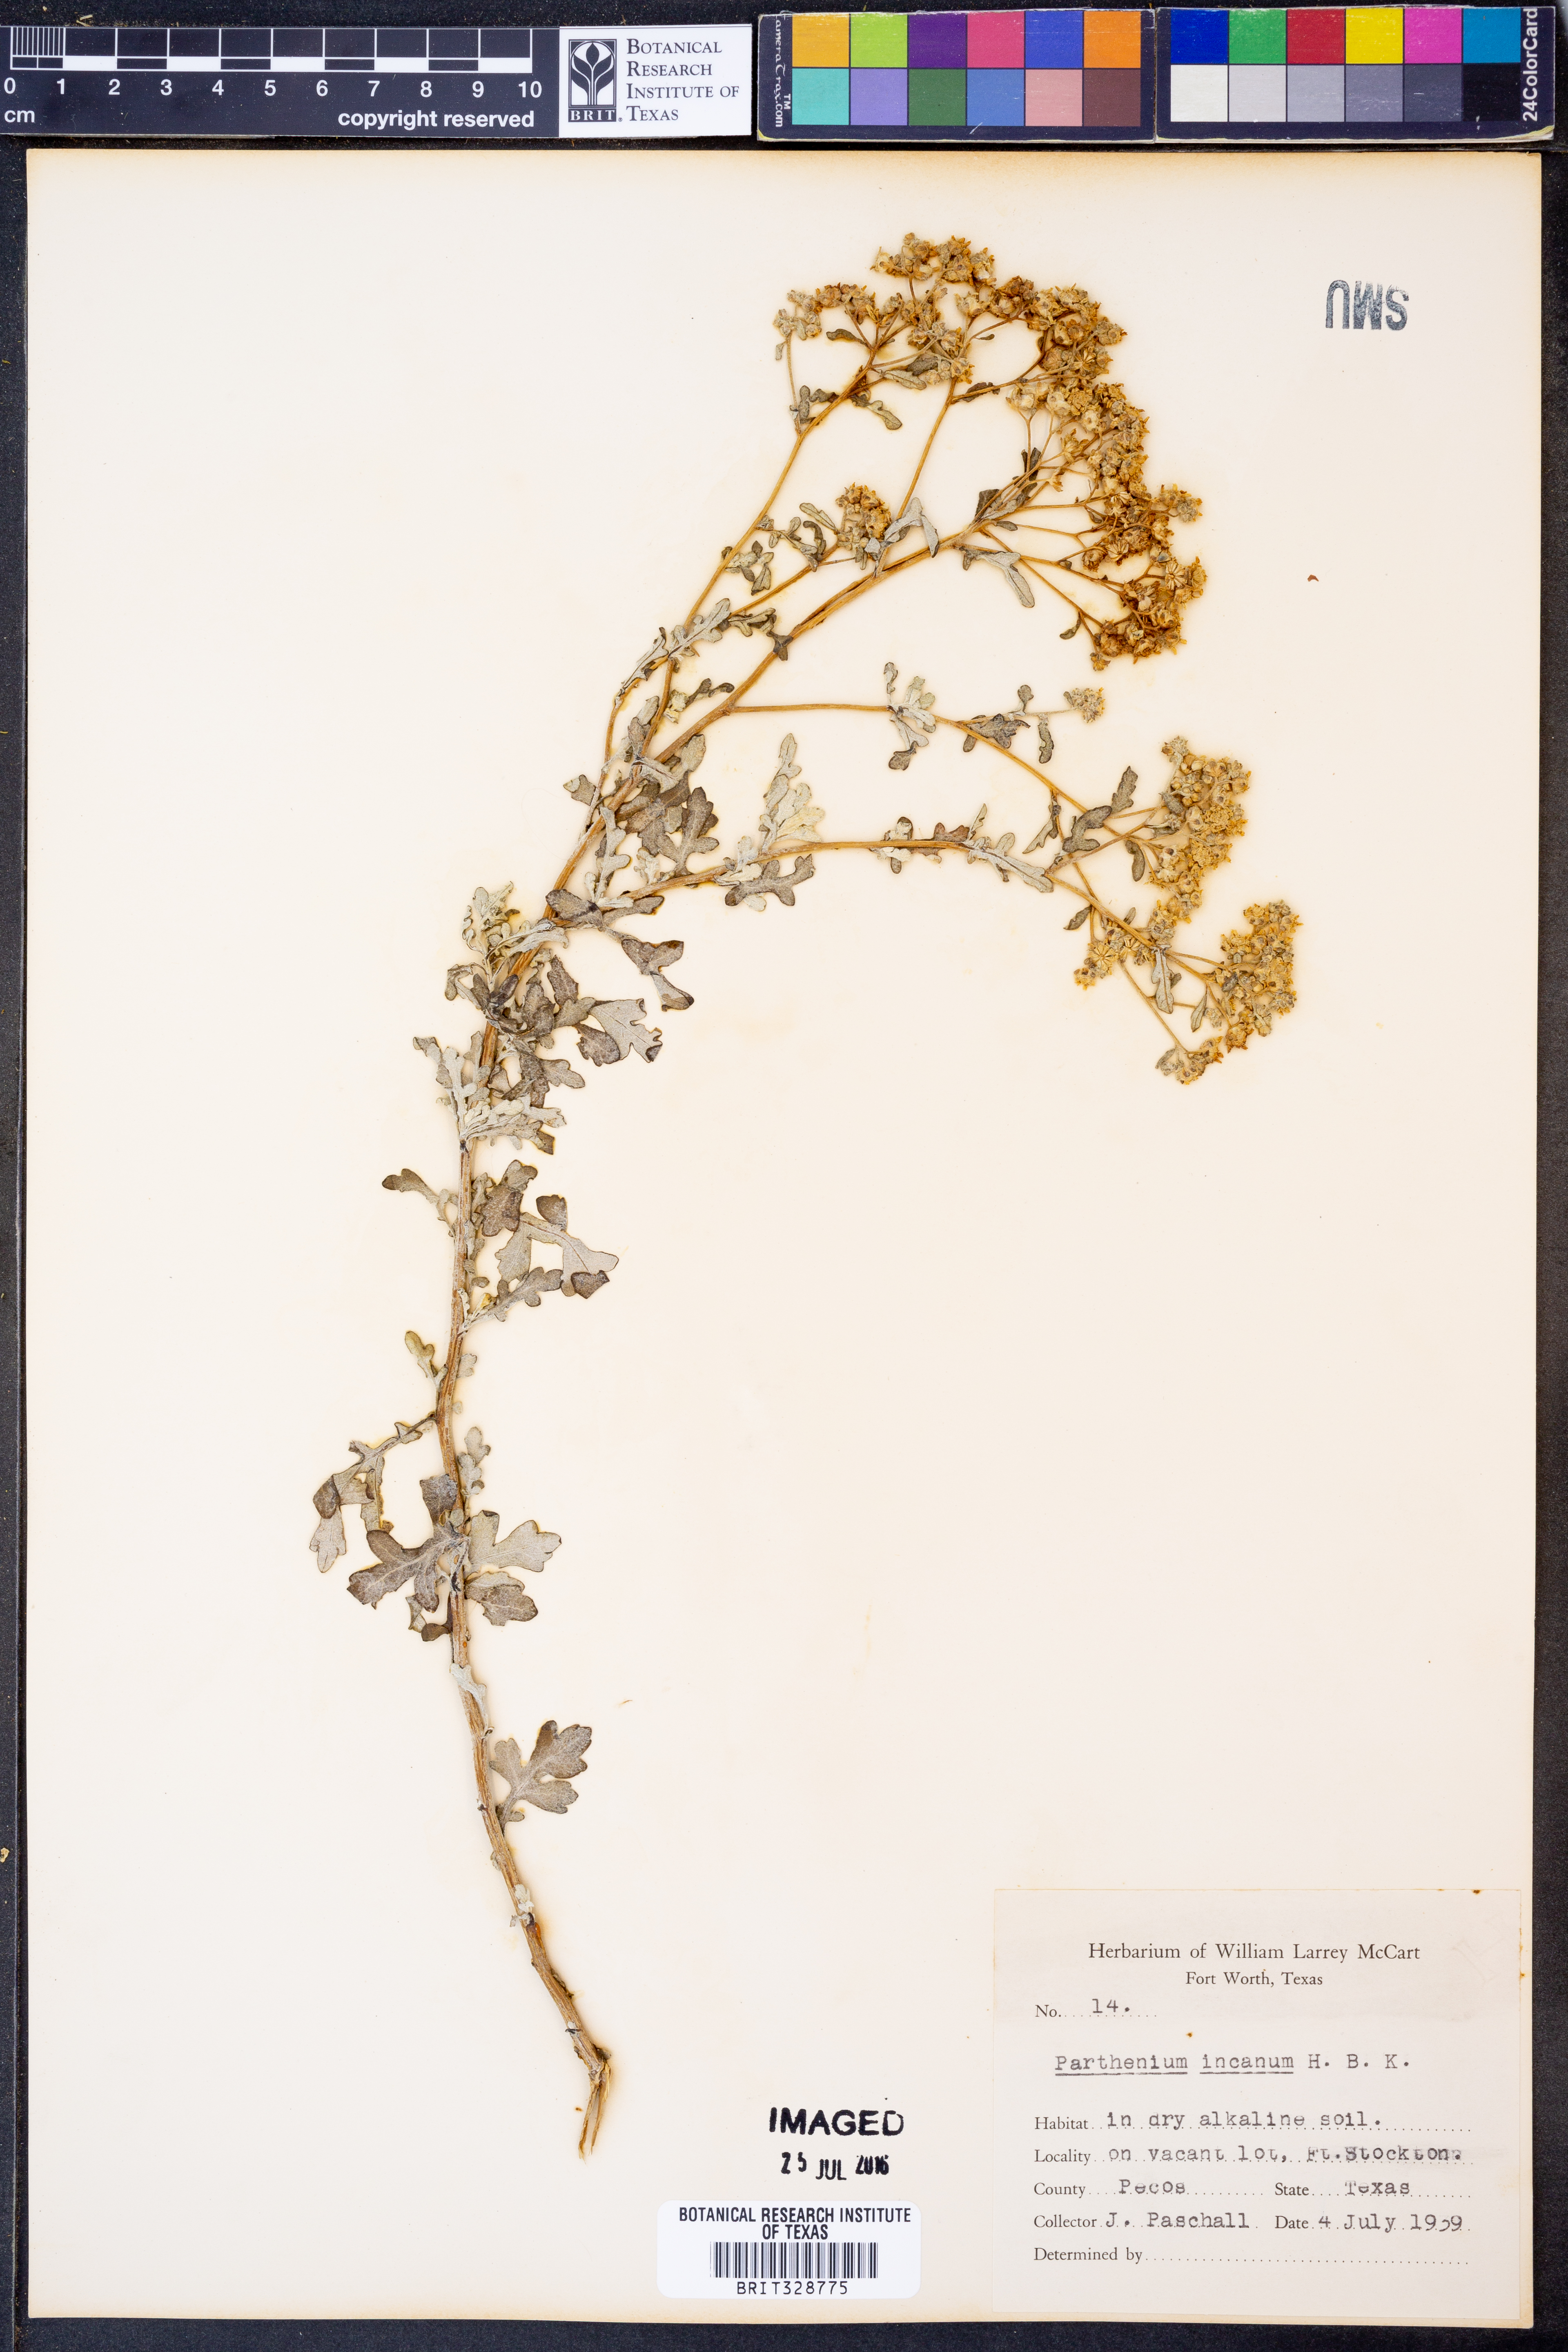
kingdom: Plantae
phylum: Tracheophyta
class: Magnoliopsida
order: Asterales
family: Asteraceae
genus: Parthenium
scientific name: Parthenium incanum
